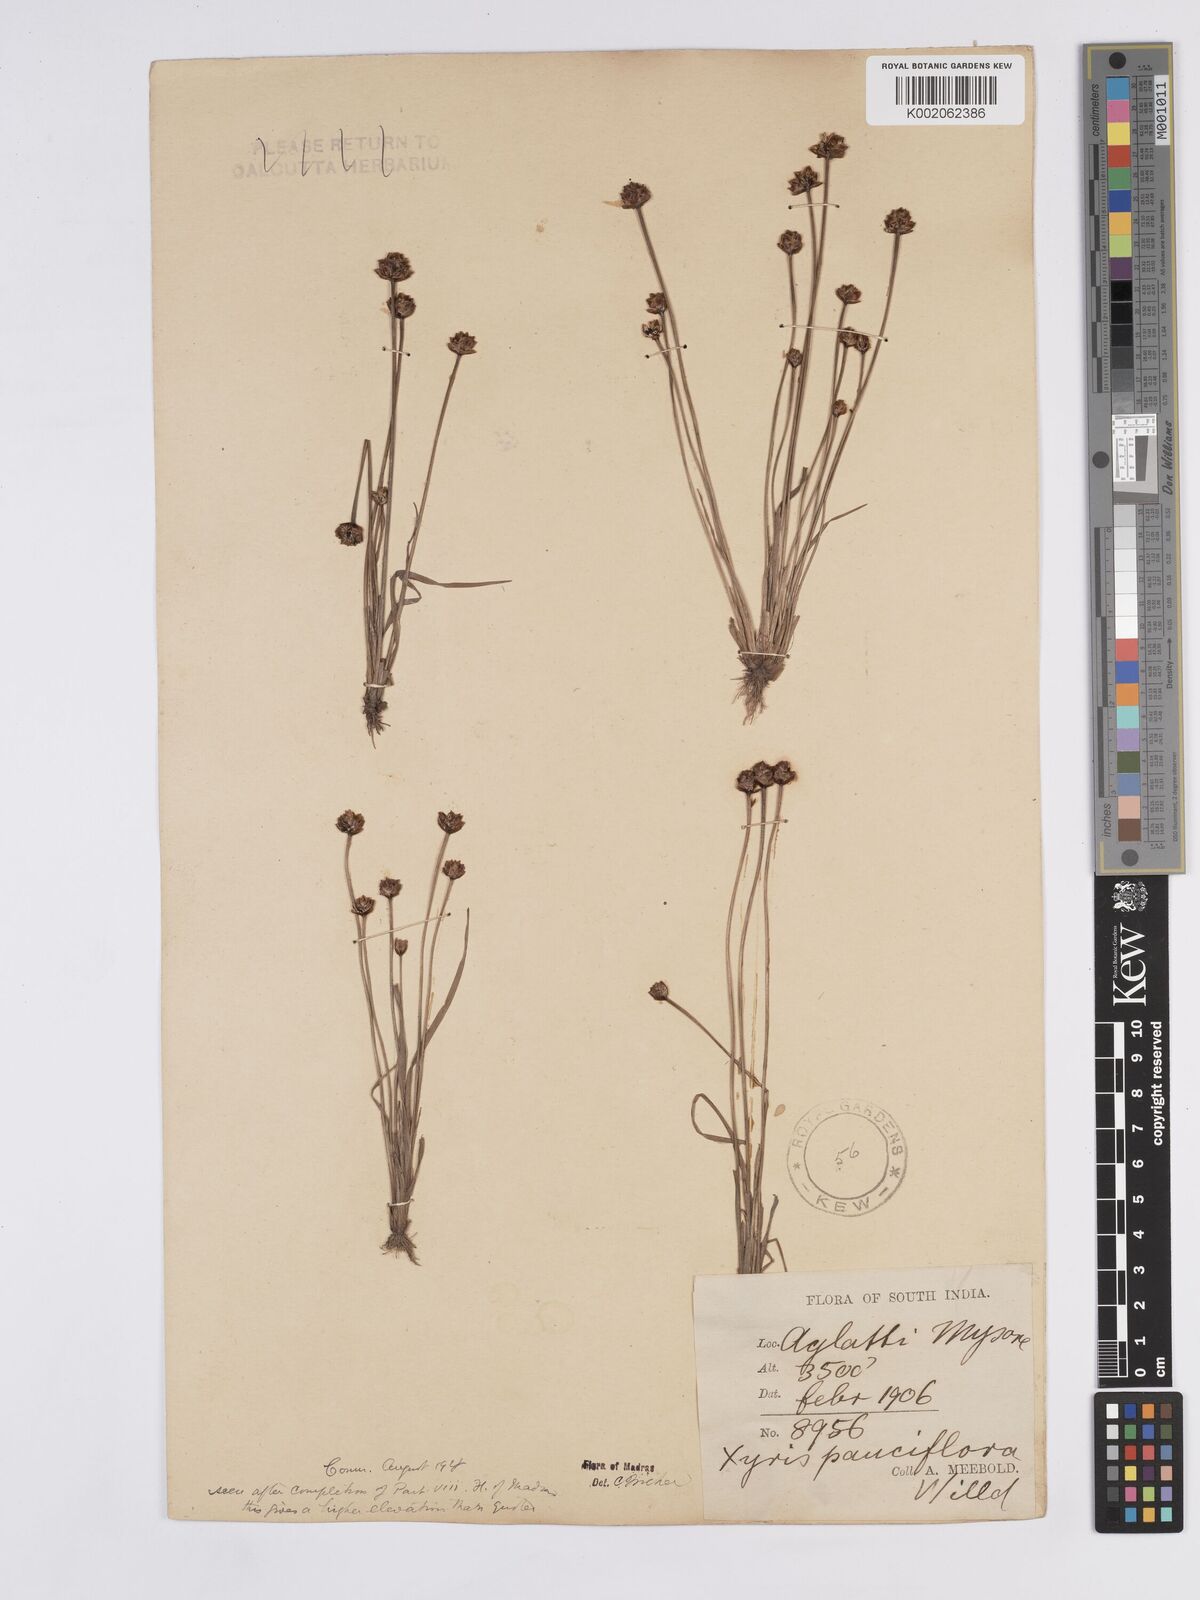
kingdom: Plantae
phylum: Tracheophyta
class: Liliopsida
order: Poales
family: Xyridaceae
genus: Xyris
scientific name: Xyris pauciflora
